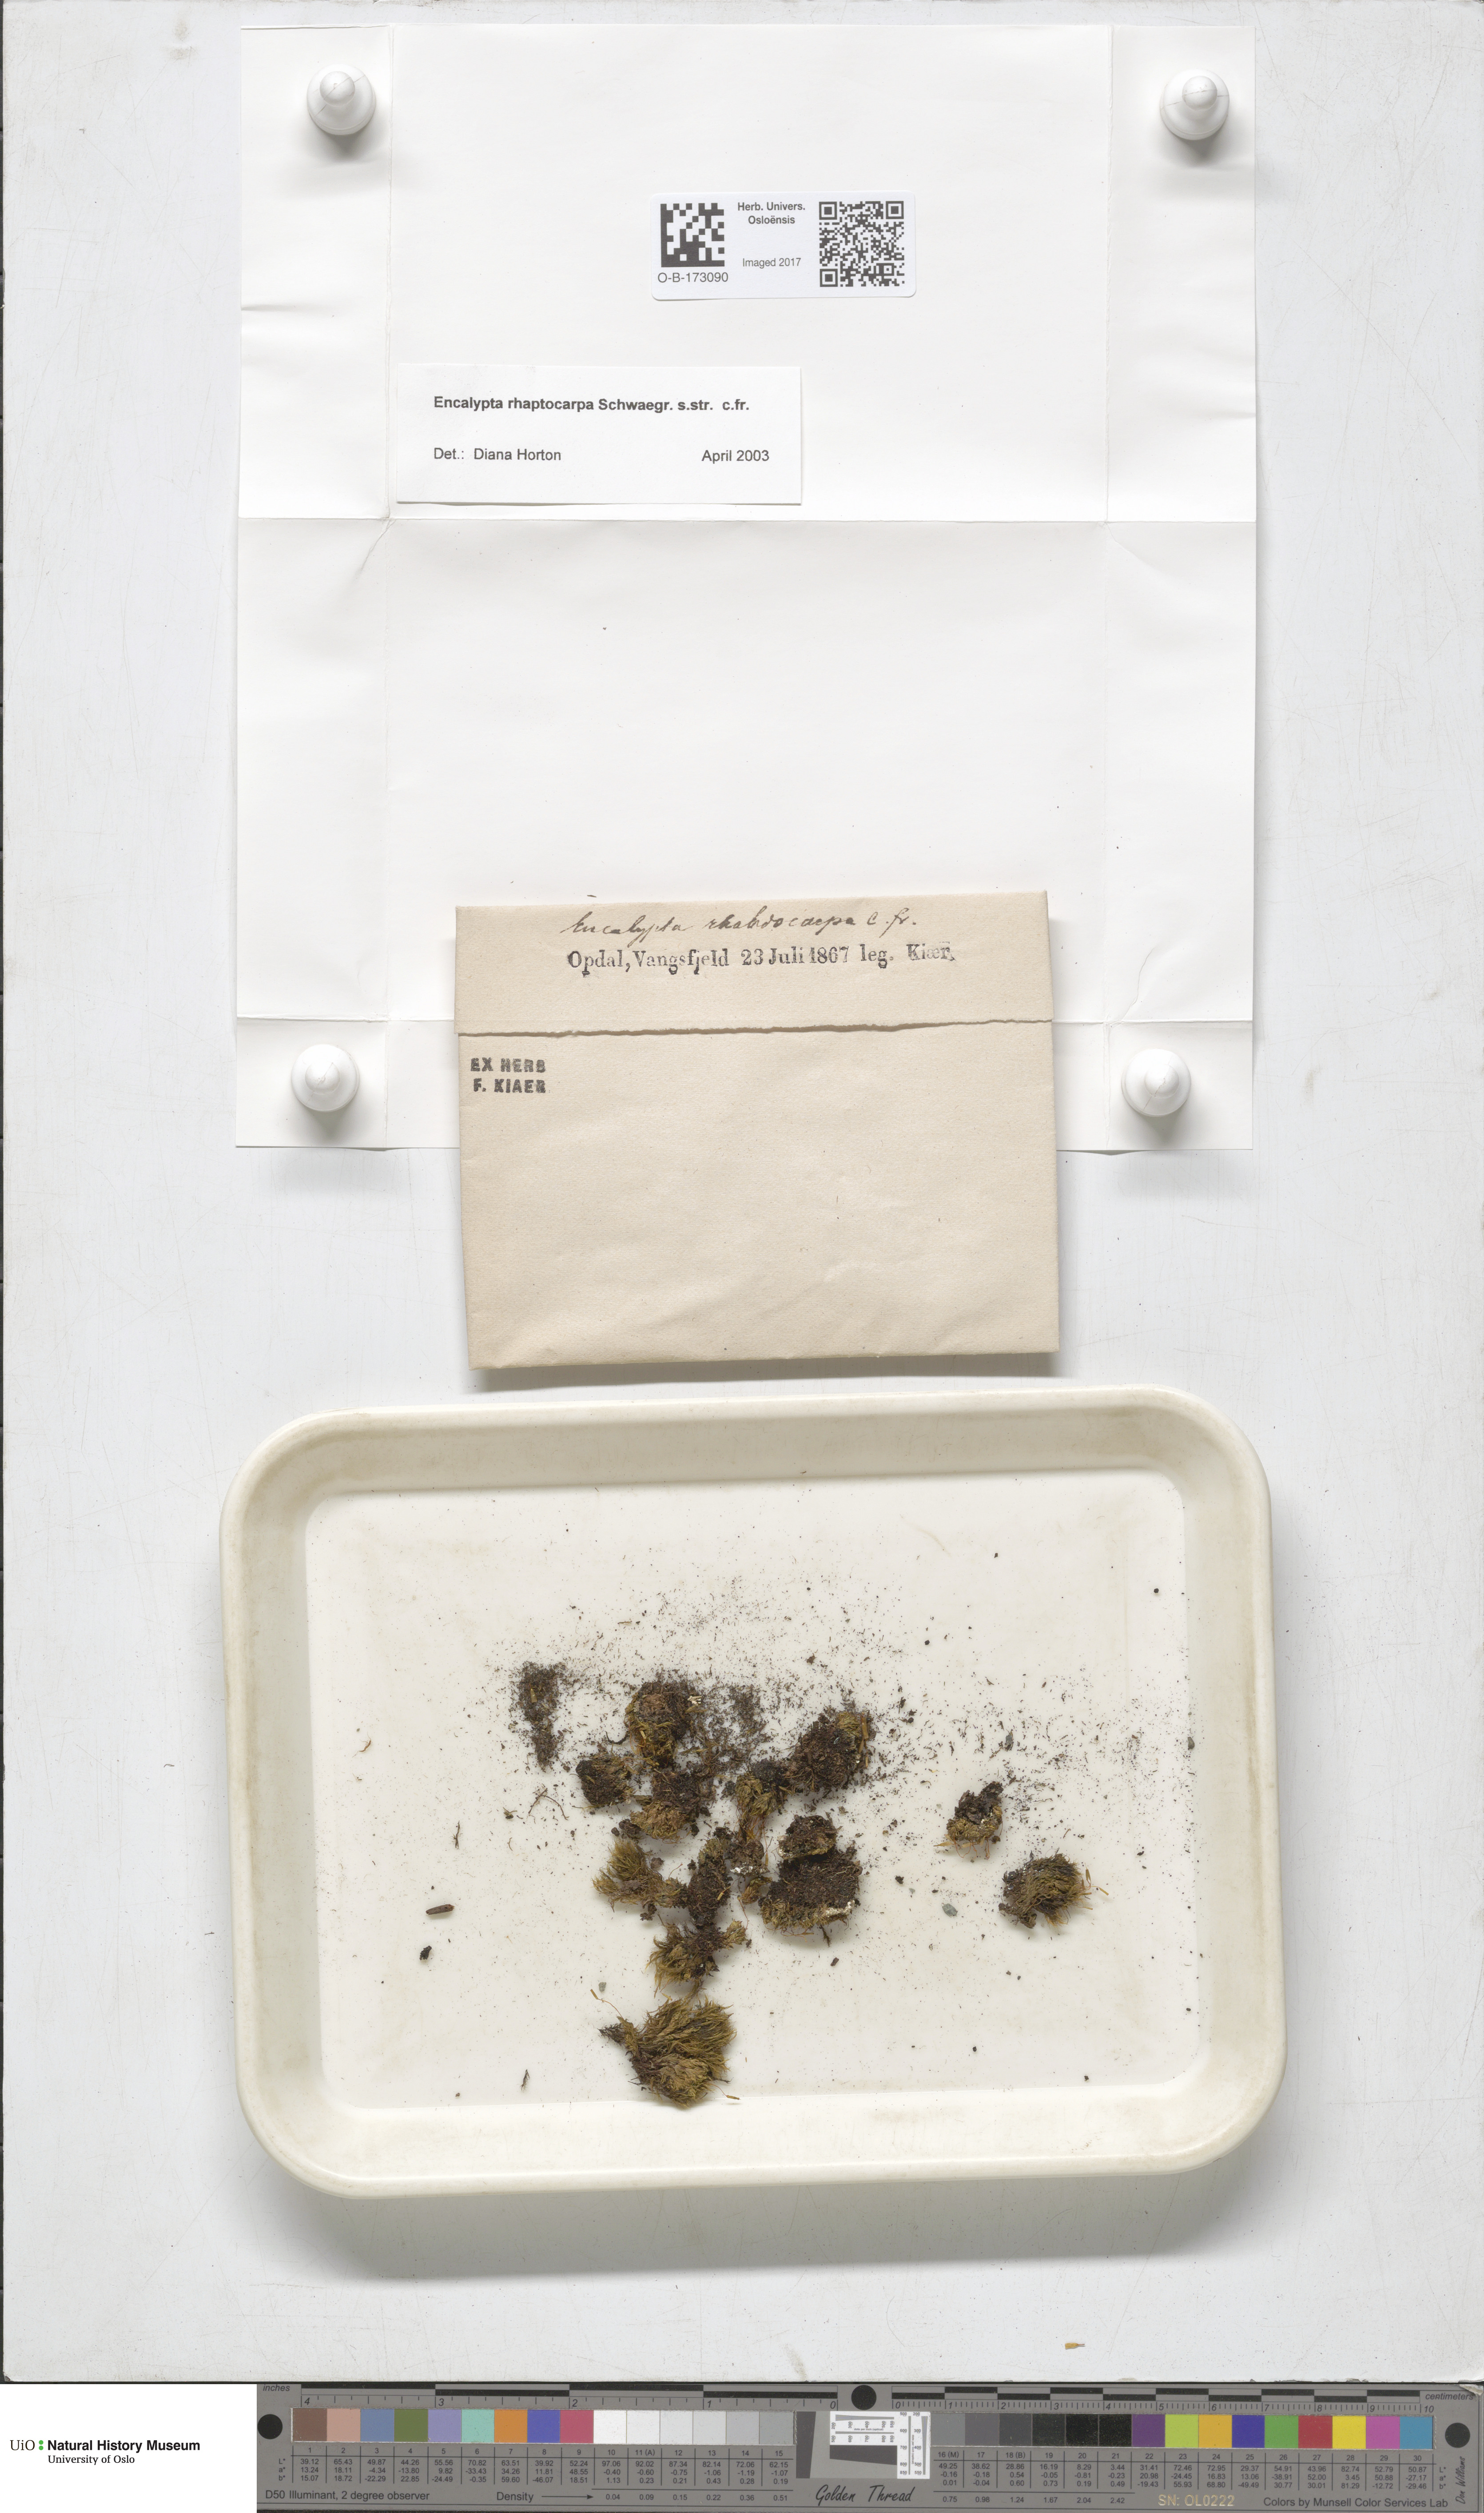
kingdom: Plantae
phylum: Bryophyta
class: Bryopsida
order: Encalyptales
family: Encalyptaceae
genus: Encalypta
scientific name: Encalypta rhaptocarpa
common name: Ribbed extinguisher moss
